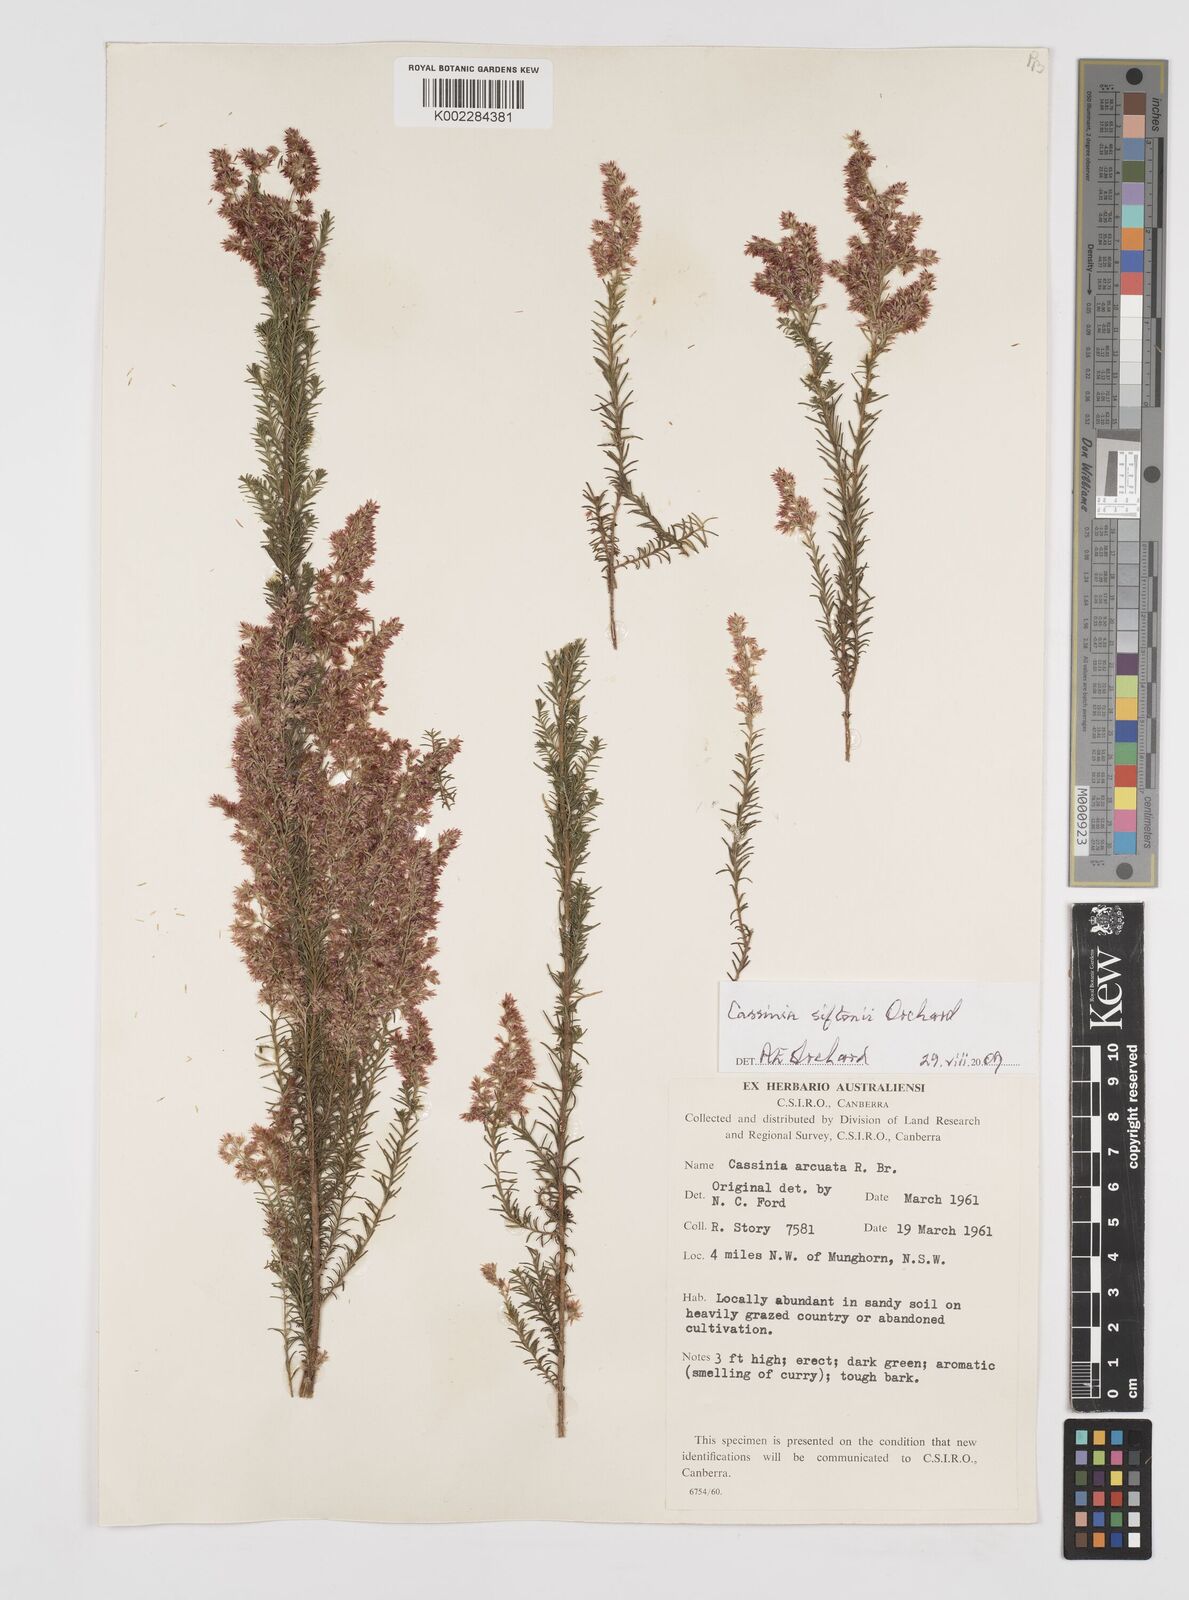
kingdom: Plantae
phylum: Tracheophyta
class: Magnoliopsida
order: Asterales
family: Asteraceae
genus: Cassinia
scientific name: Cassinia arcuata
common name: Chineseshrub
